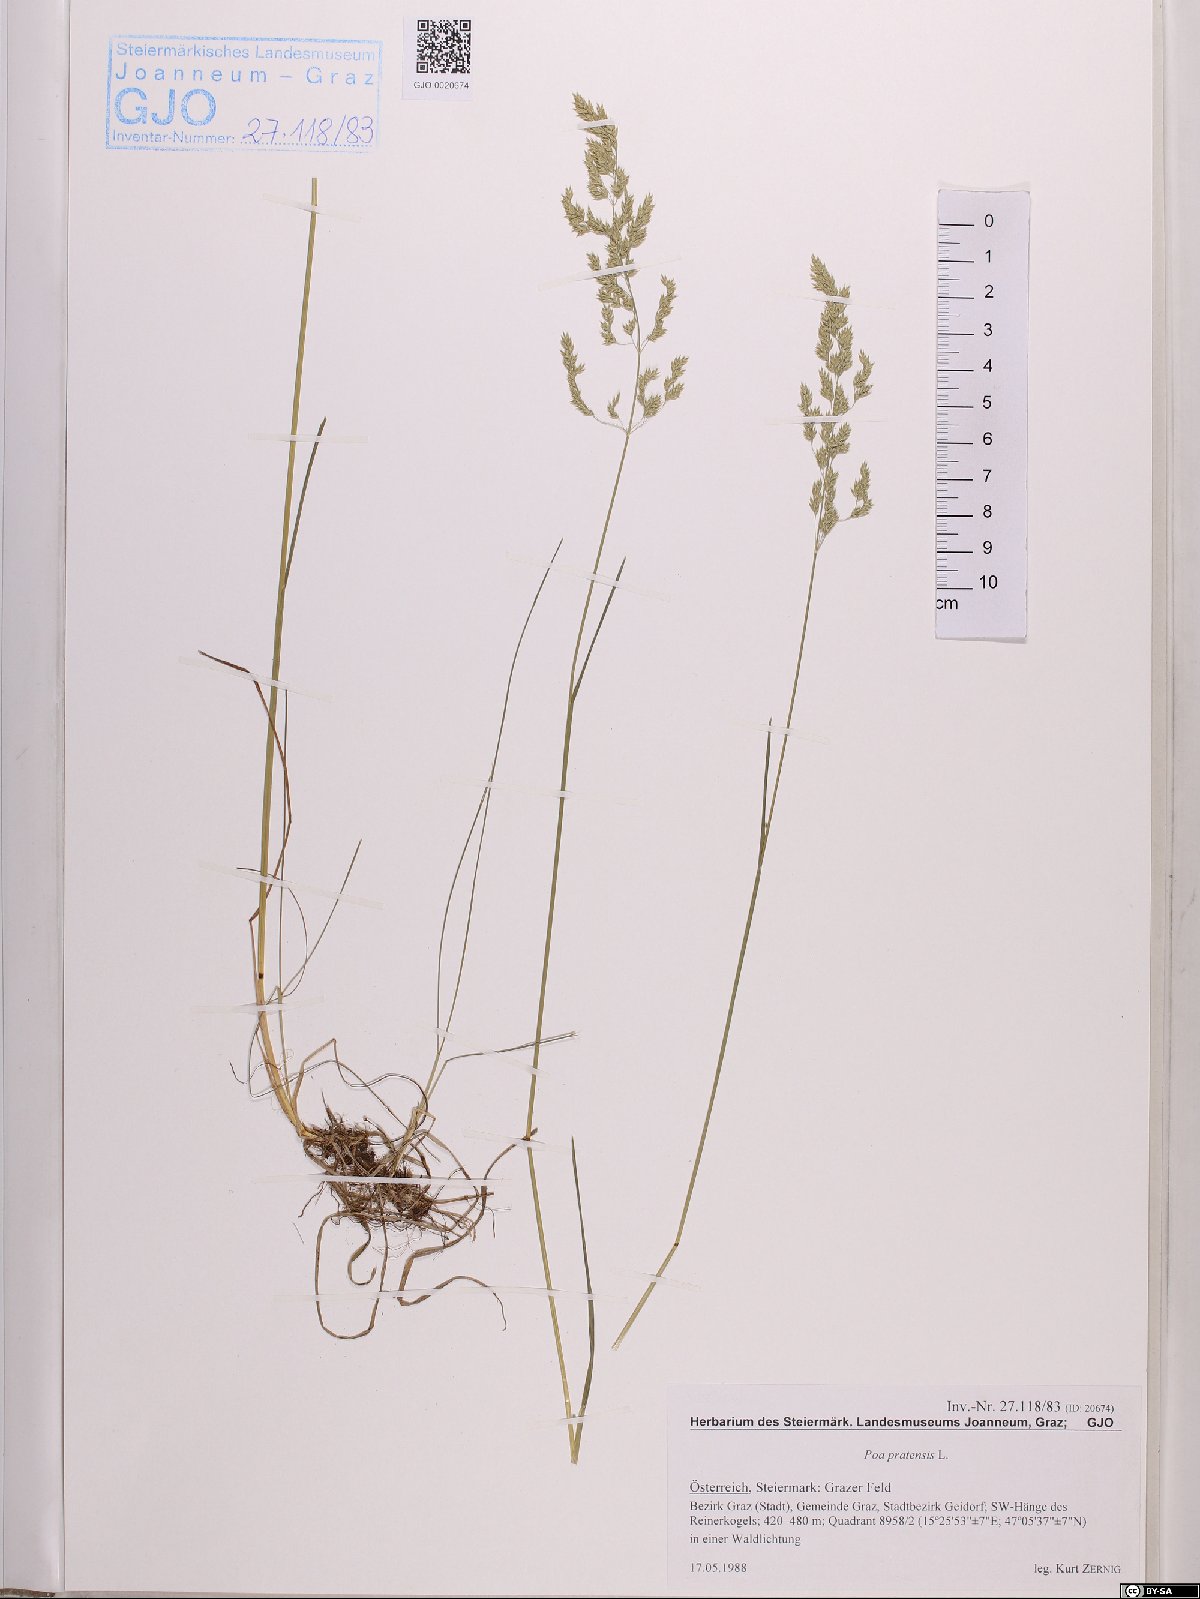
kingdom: Plantae
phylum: Tracheophyta
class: Liliopsida
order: Poales
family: Poaceae
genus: Poa
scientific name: Poa pratensis
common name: Kentucky bluegrass
